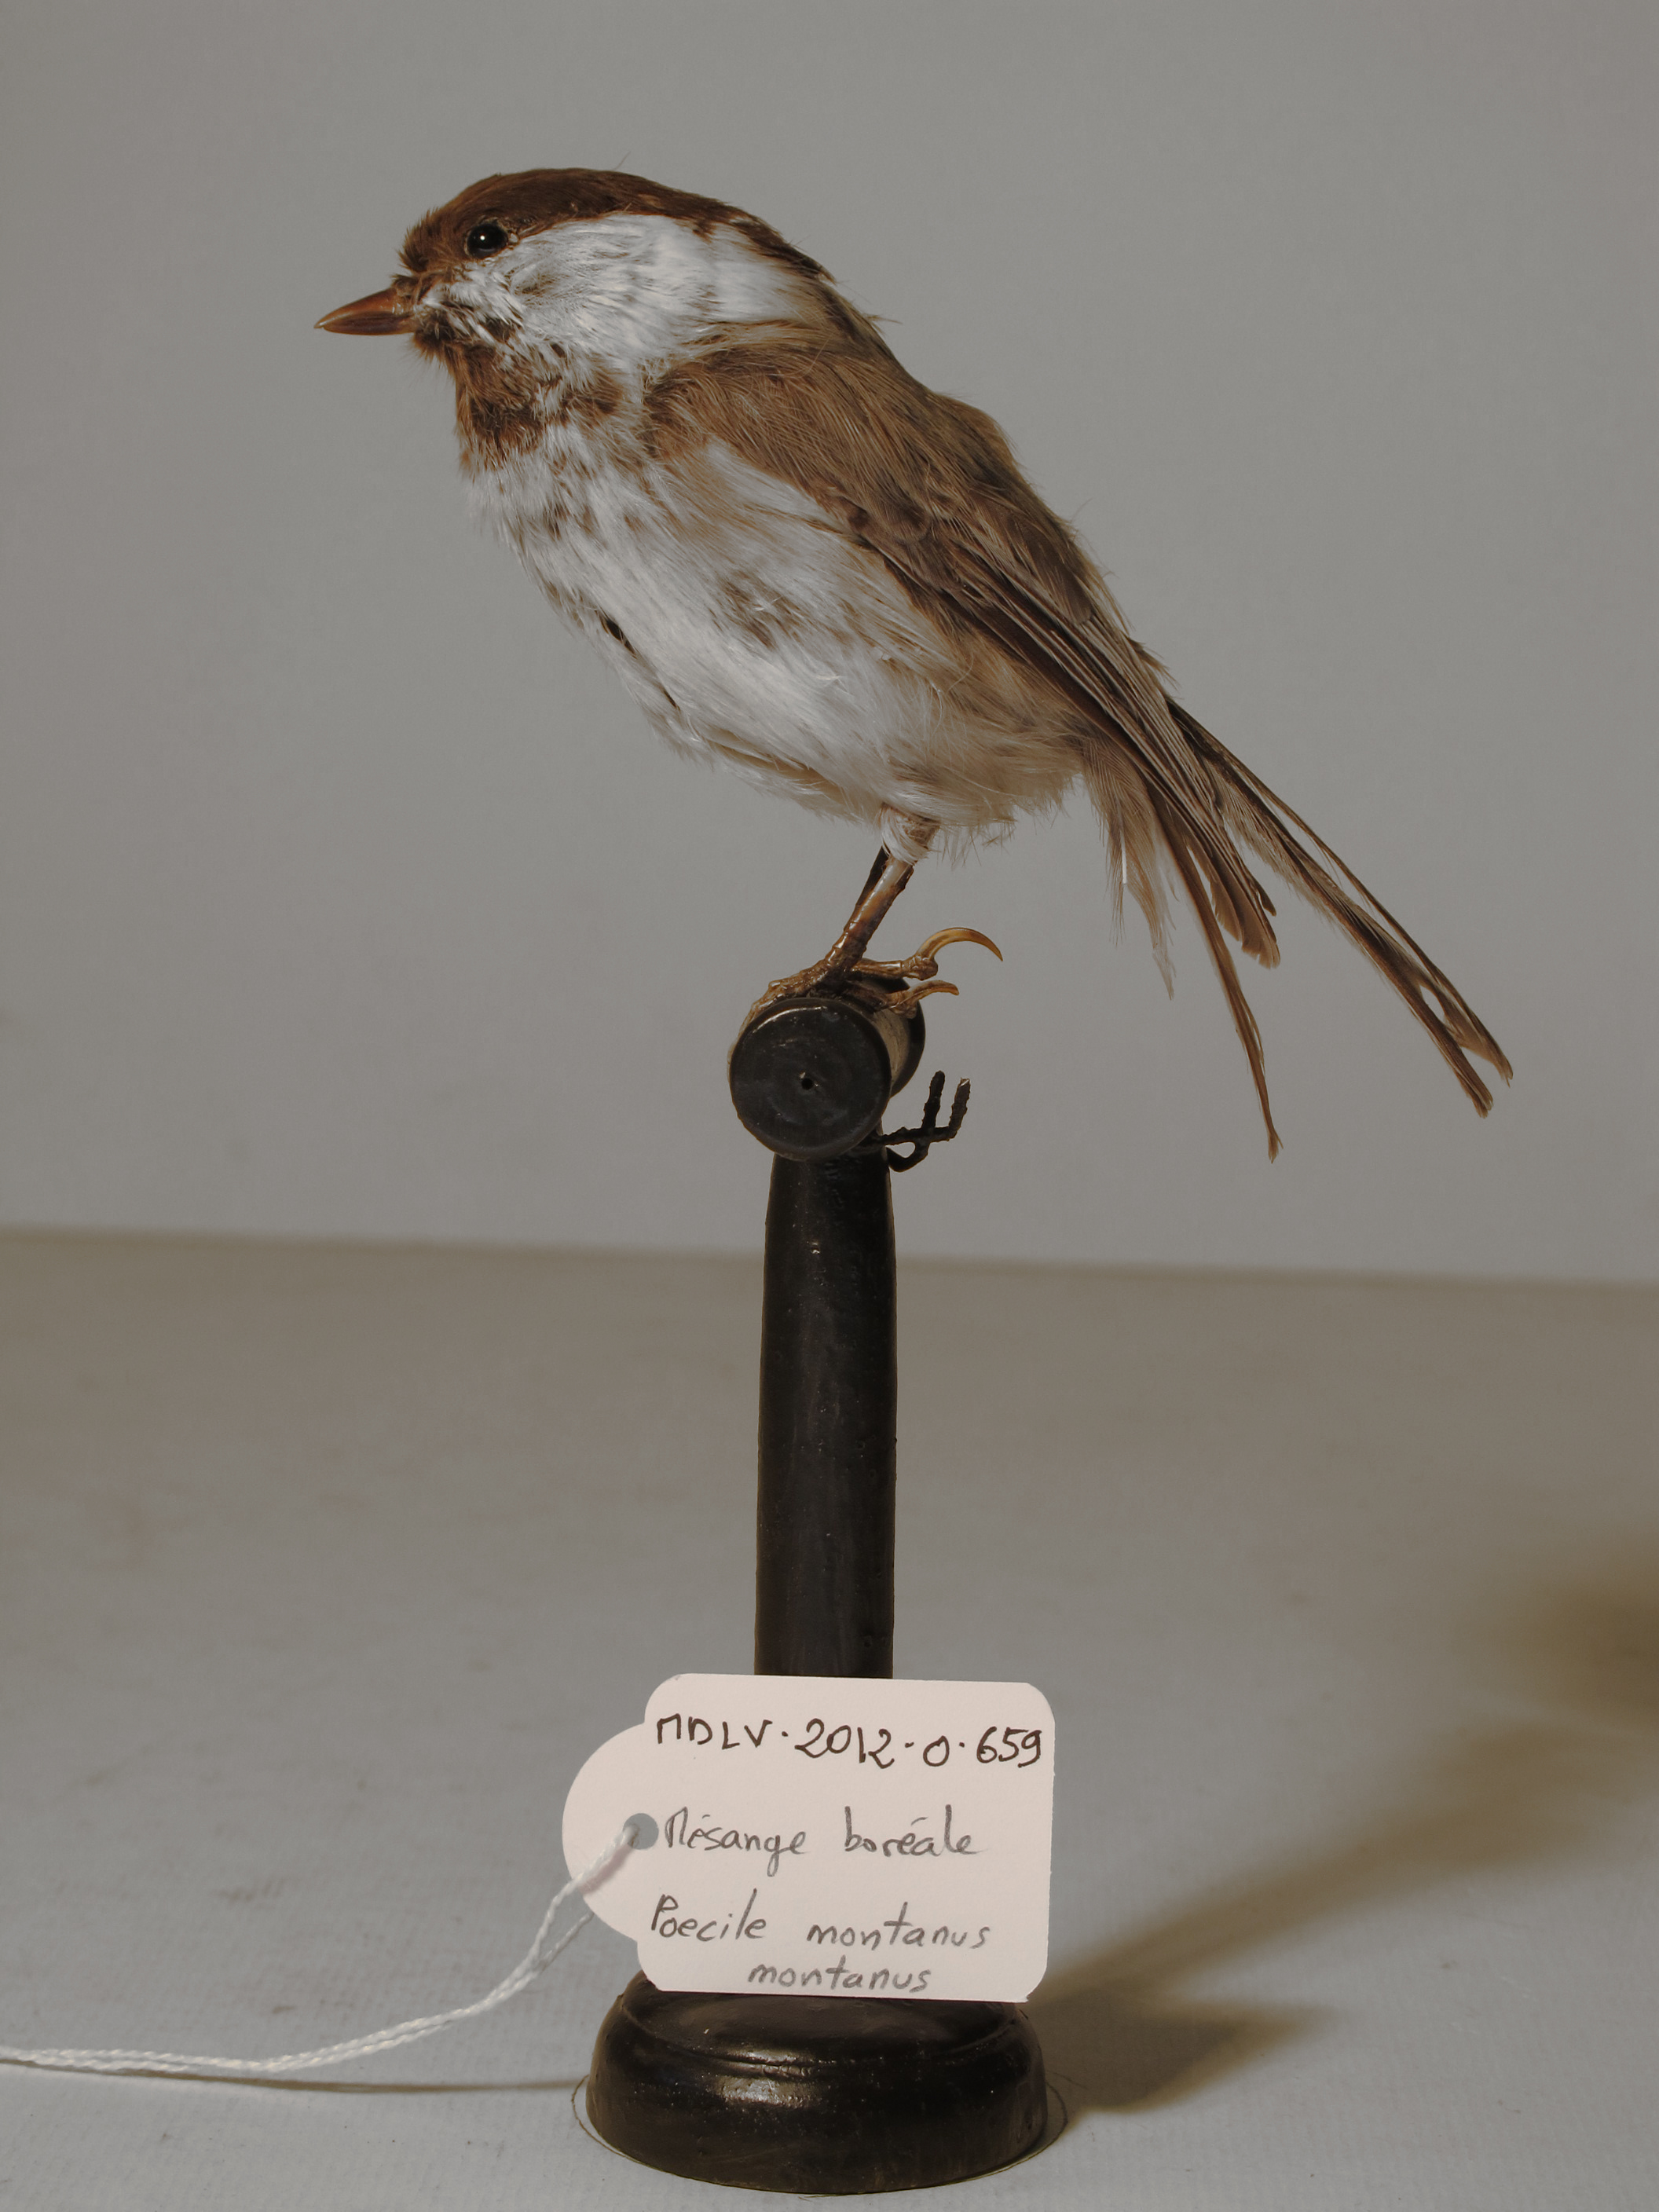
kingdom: Animalia
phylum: Chordata
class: Aves
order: Passeriformes
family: Paridae
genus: Poecile
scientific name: Poecile montanus
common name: Willow Tit
